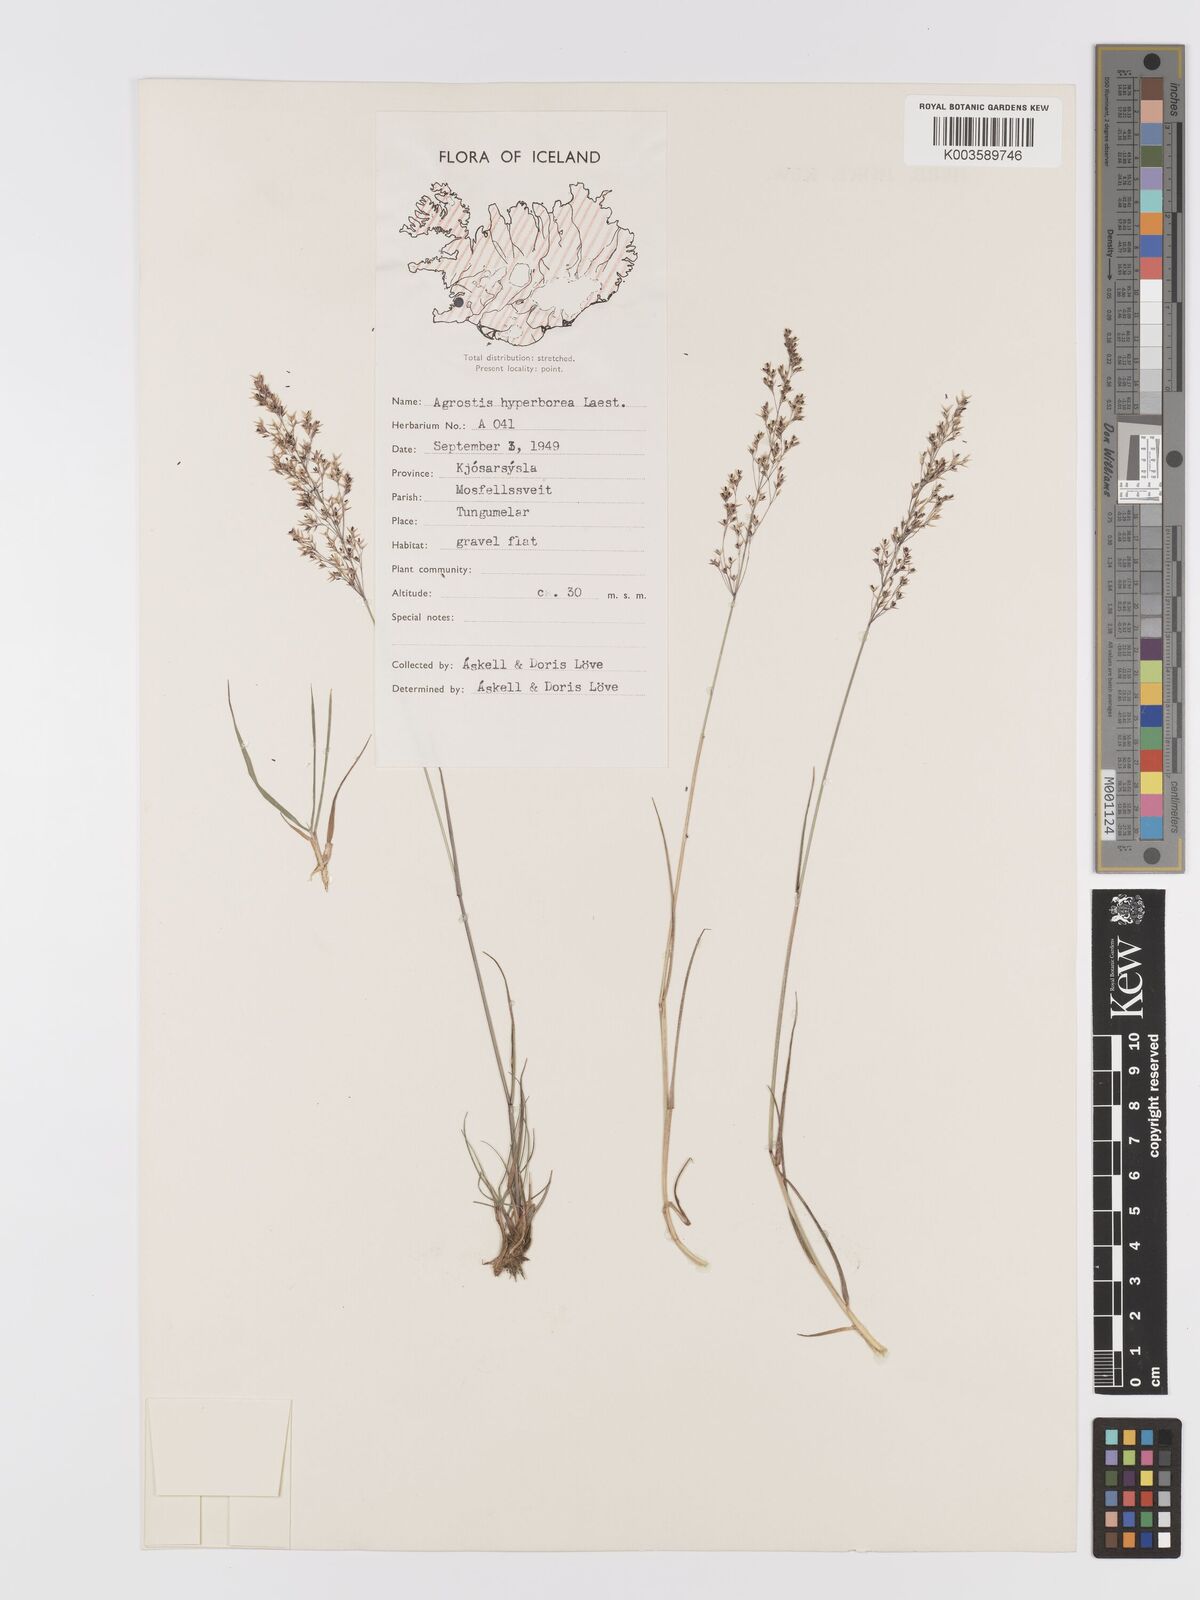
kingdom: Plantae
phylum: Tracheophyta
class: Liliopsida
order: Poales
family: Poaceae
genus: Agrostis
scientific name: Agrostis
